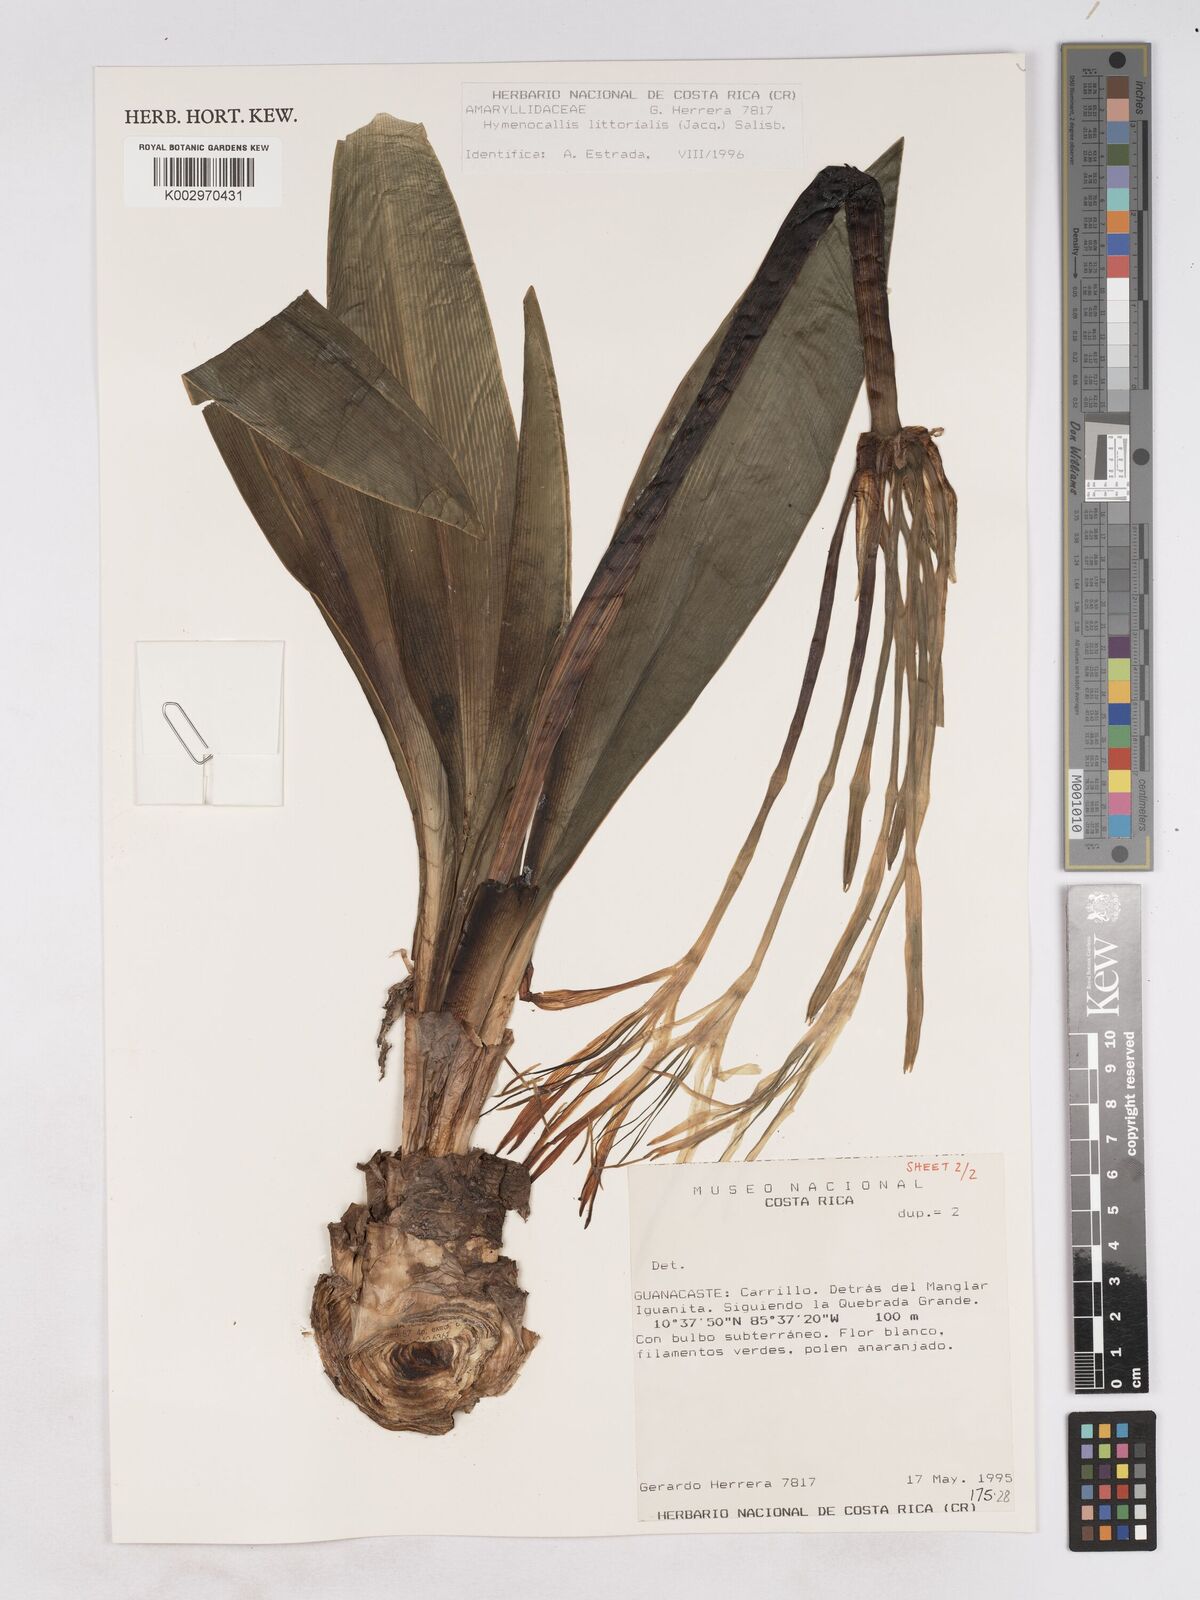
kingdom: Plantae
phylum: Tracheophyta
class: Liliopsida
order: Asparagales
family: Amaryllidaceae
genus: Hymenocallis
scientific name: Hymenocallis littoralis
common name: Beach spiderlily
